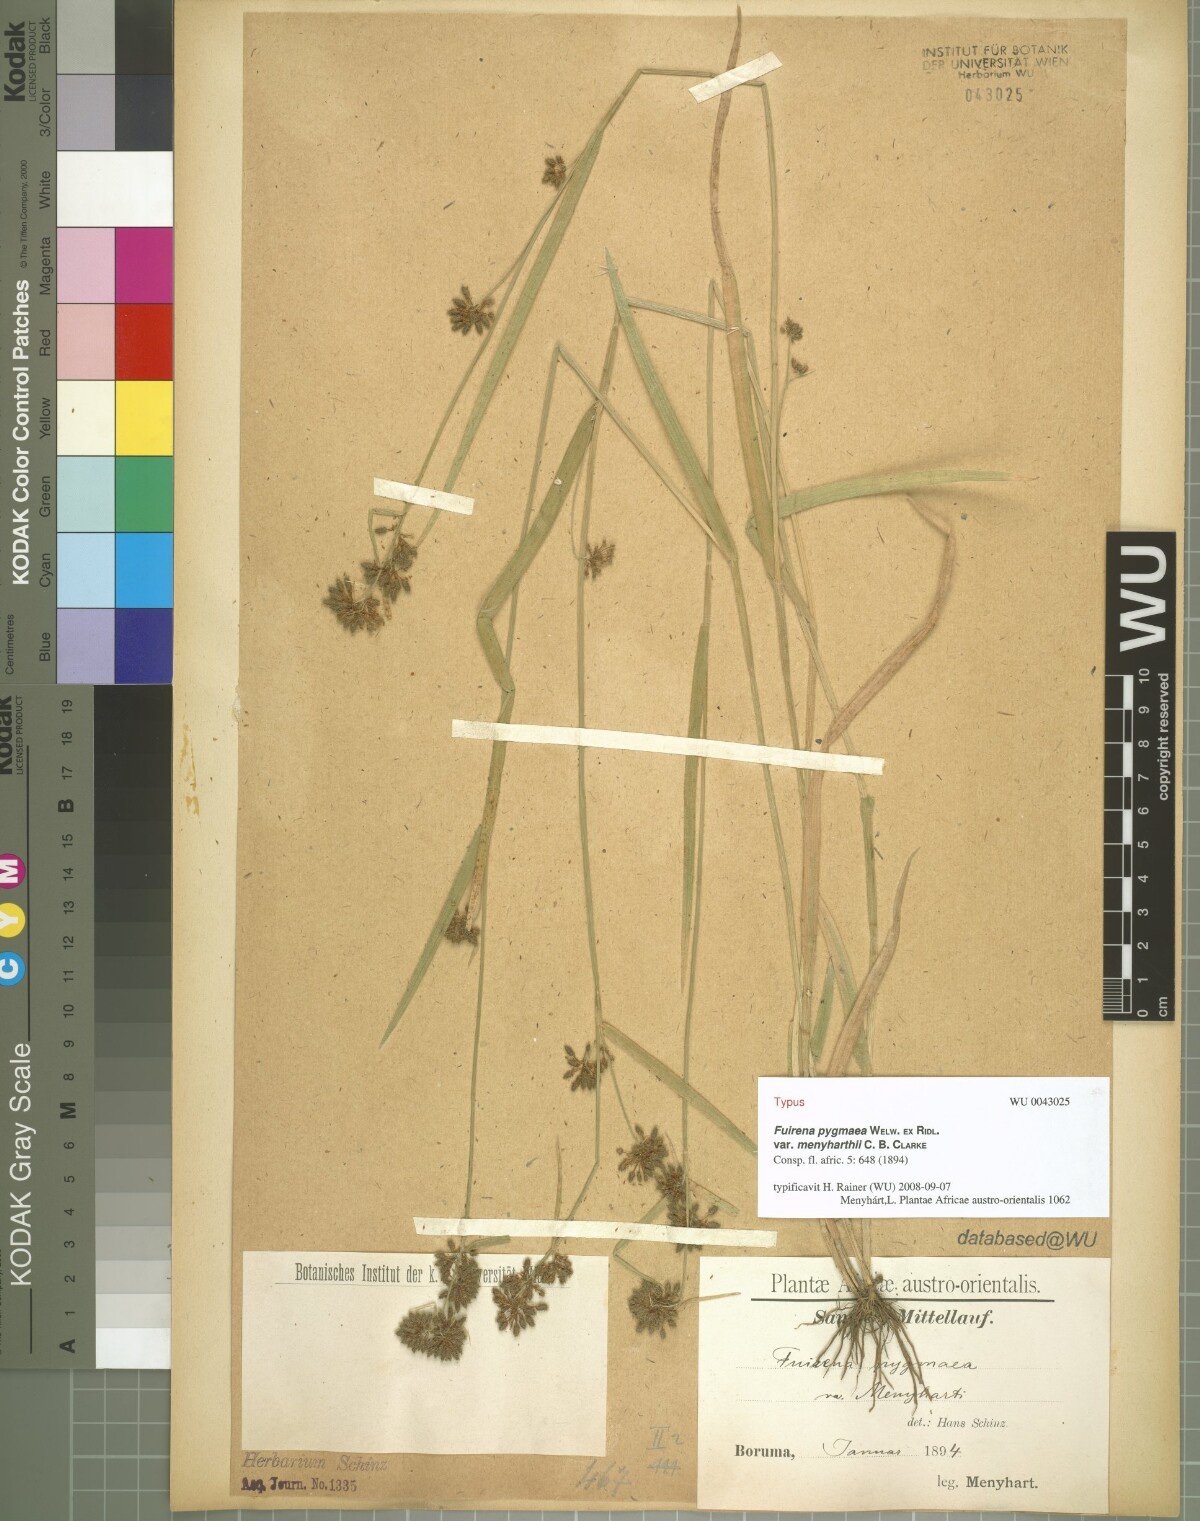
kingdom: Plantae
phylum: Tracheophyta
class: Liliopsida
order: Poales
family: Cyperaceae
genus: Fuirena
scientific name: Fuirena leptostachya
